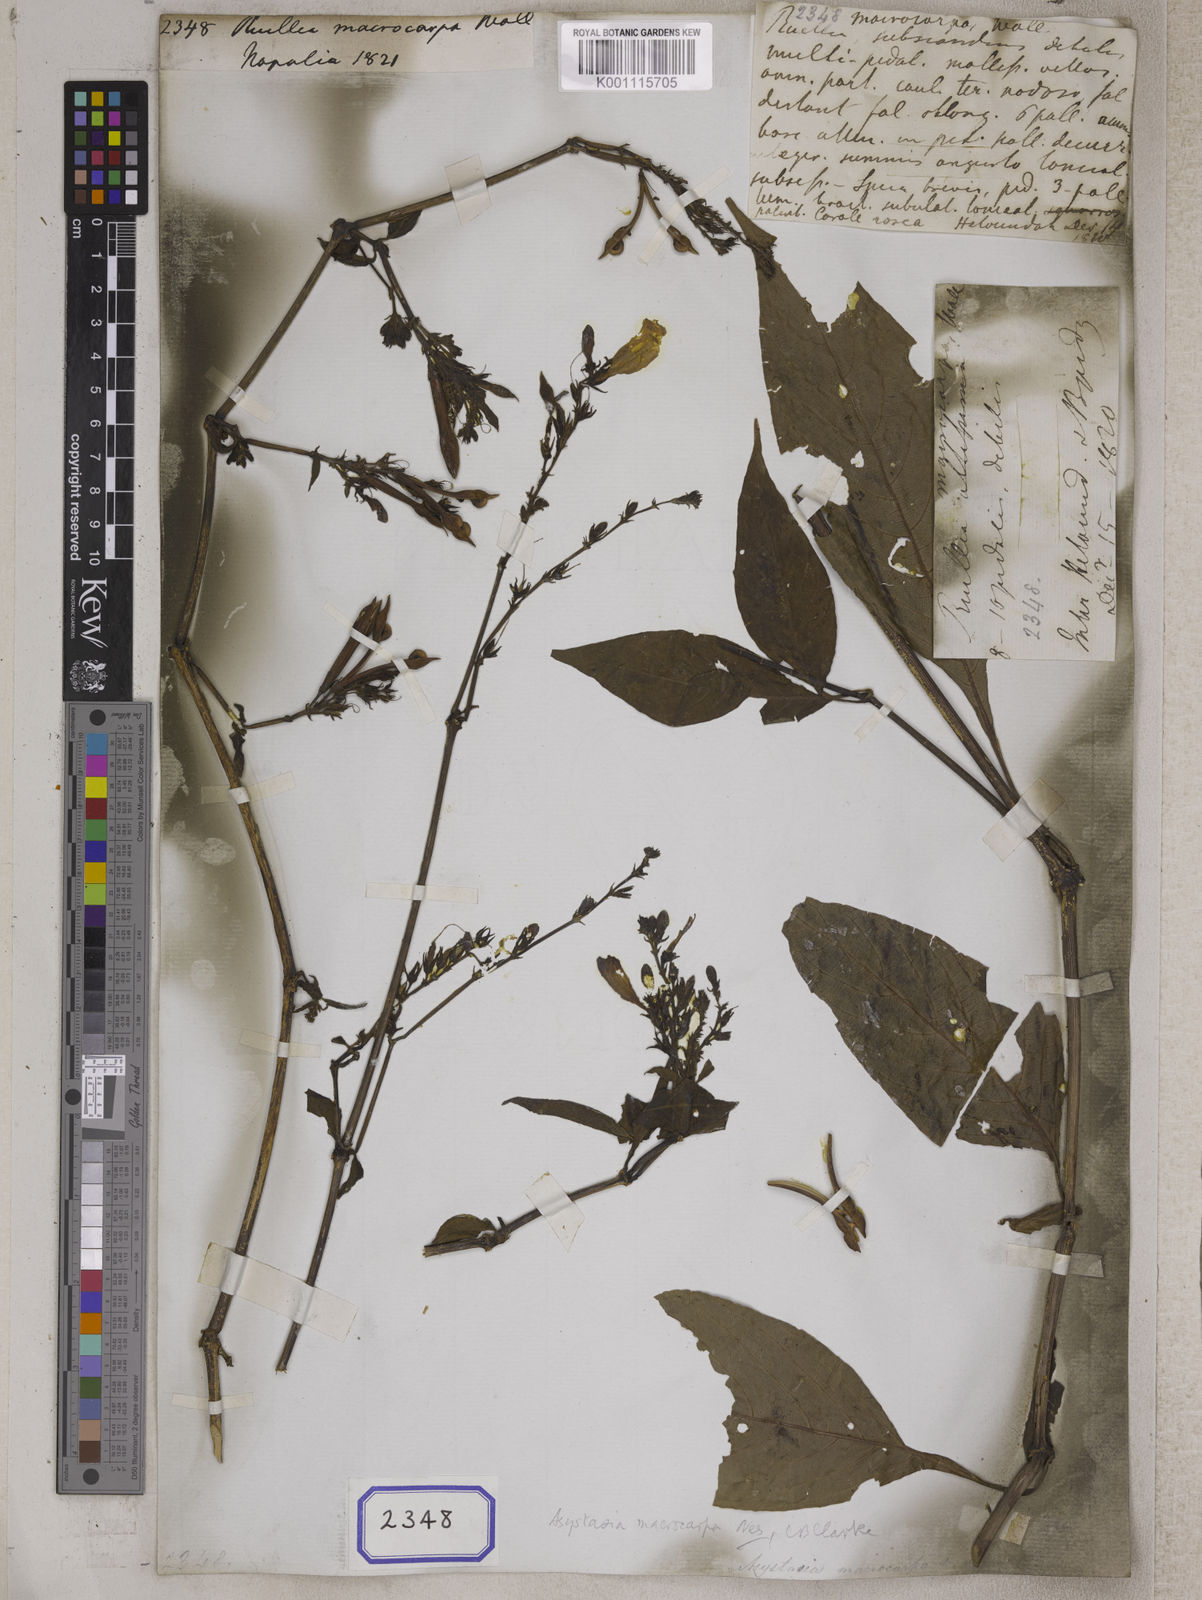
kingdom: Plantae
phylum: Tracheophyta
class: Magnoliopsida
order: Lamiales
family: Acanthaceae
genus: Mackaya
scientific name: Mackaya macrocarpa
